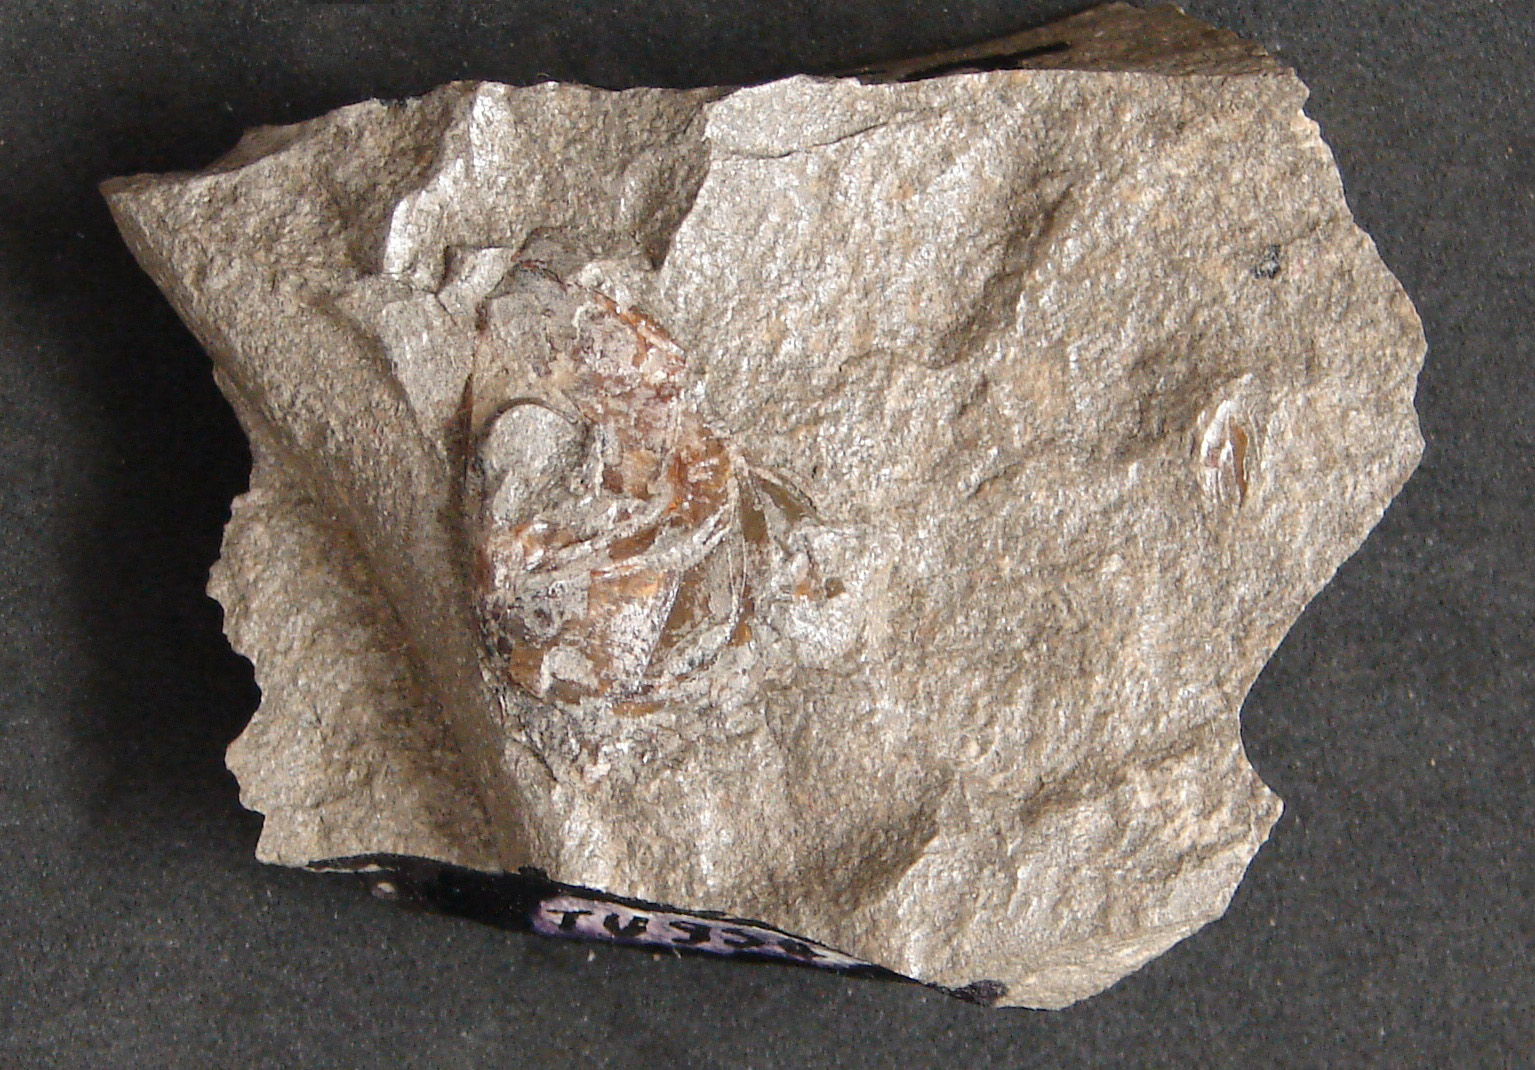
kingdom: Animalia
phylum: Chordata
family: Leptolepididae
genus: Leptolepis
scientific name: Leptolepis normandica
